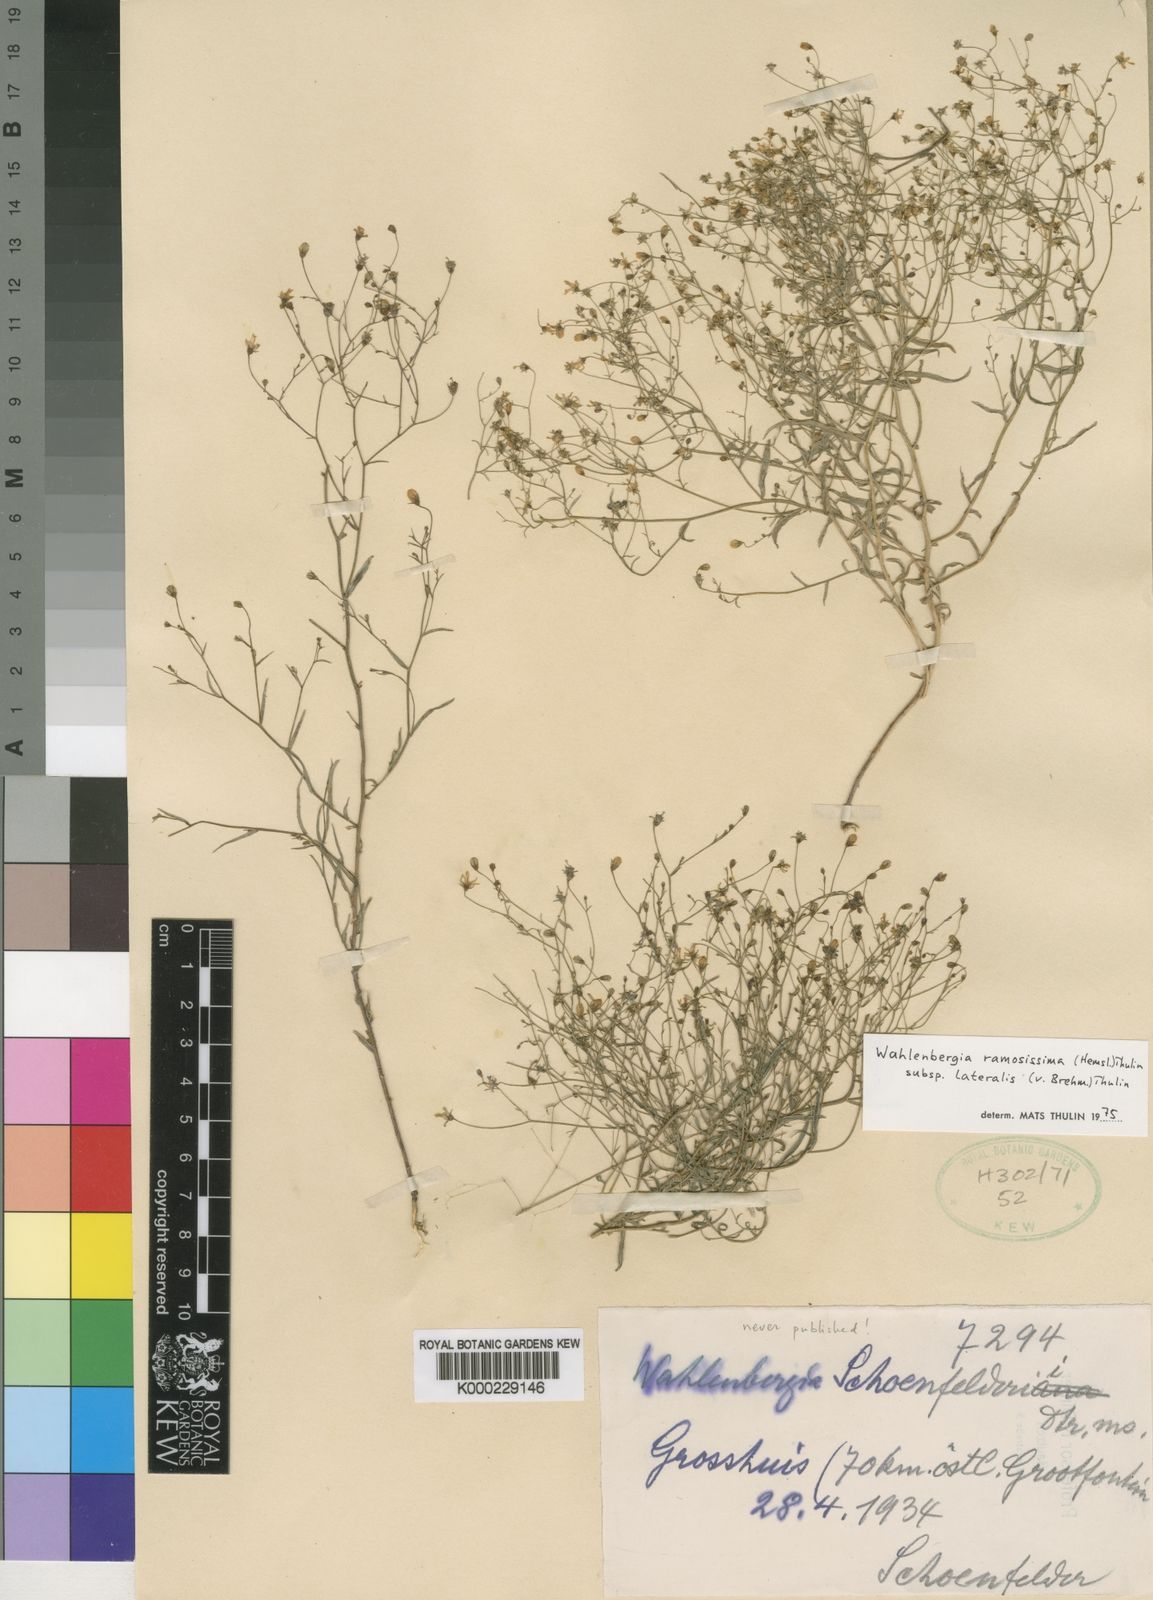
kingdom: Plantae
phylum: Tracheophyta
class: Magnoliopsida
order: Asterales
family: Campanulaceae
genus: Wahlenbergia
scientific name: Wahlenbergia ramosissima
